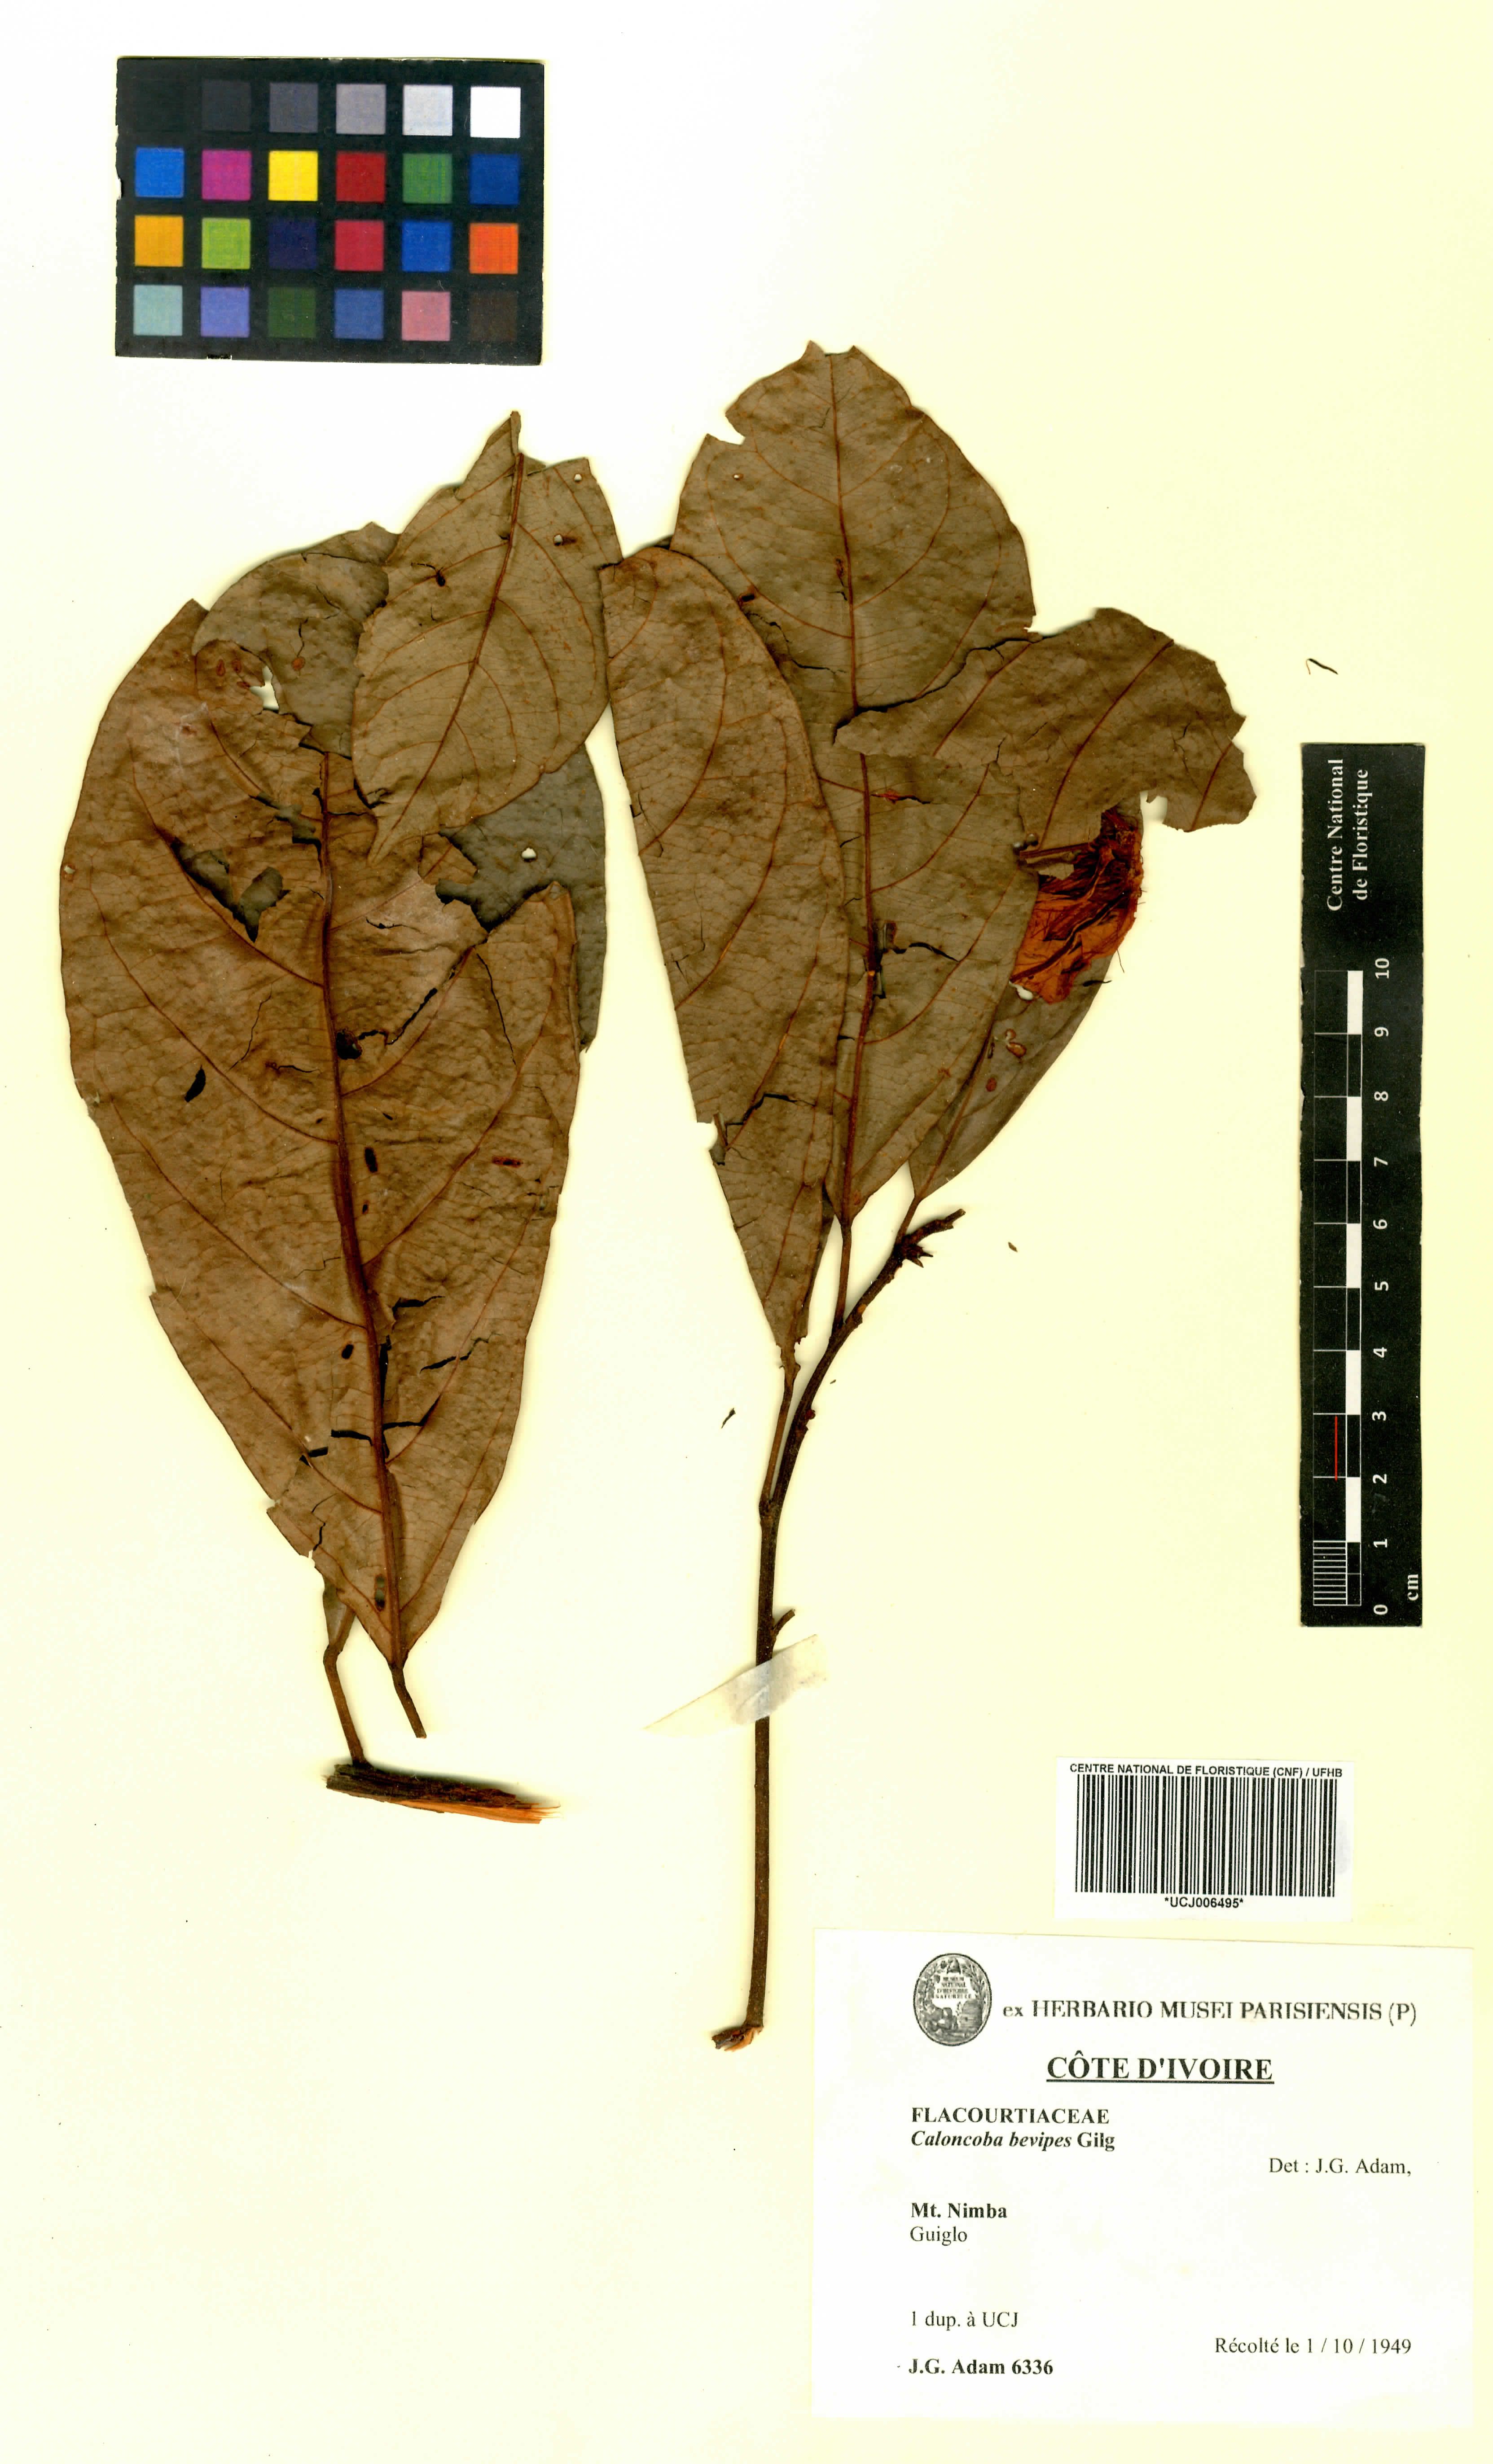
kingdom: Plantae
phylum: Tracheophyta
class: Magnoliopsida
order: Malpighiales
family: Achariaceae
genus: Caloncoba
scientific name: Caloncoba brevipes
